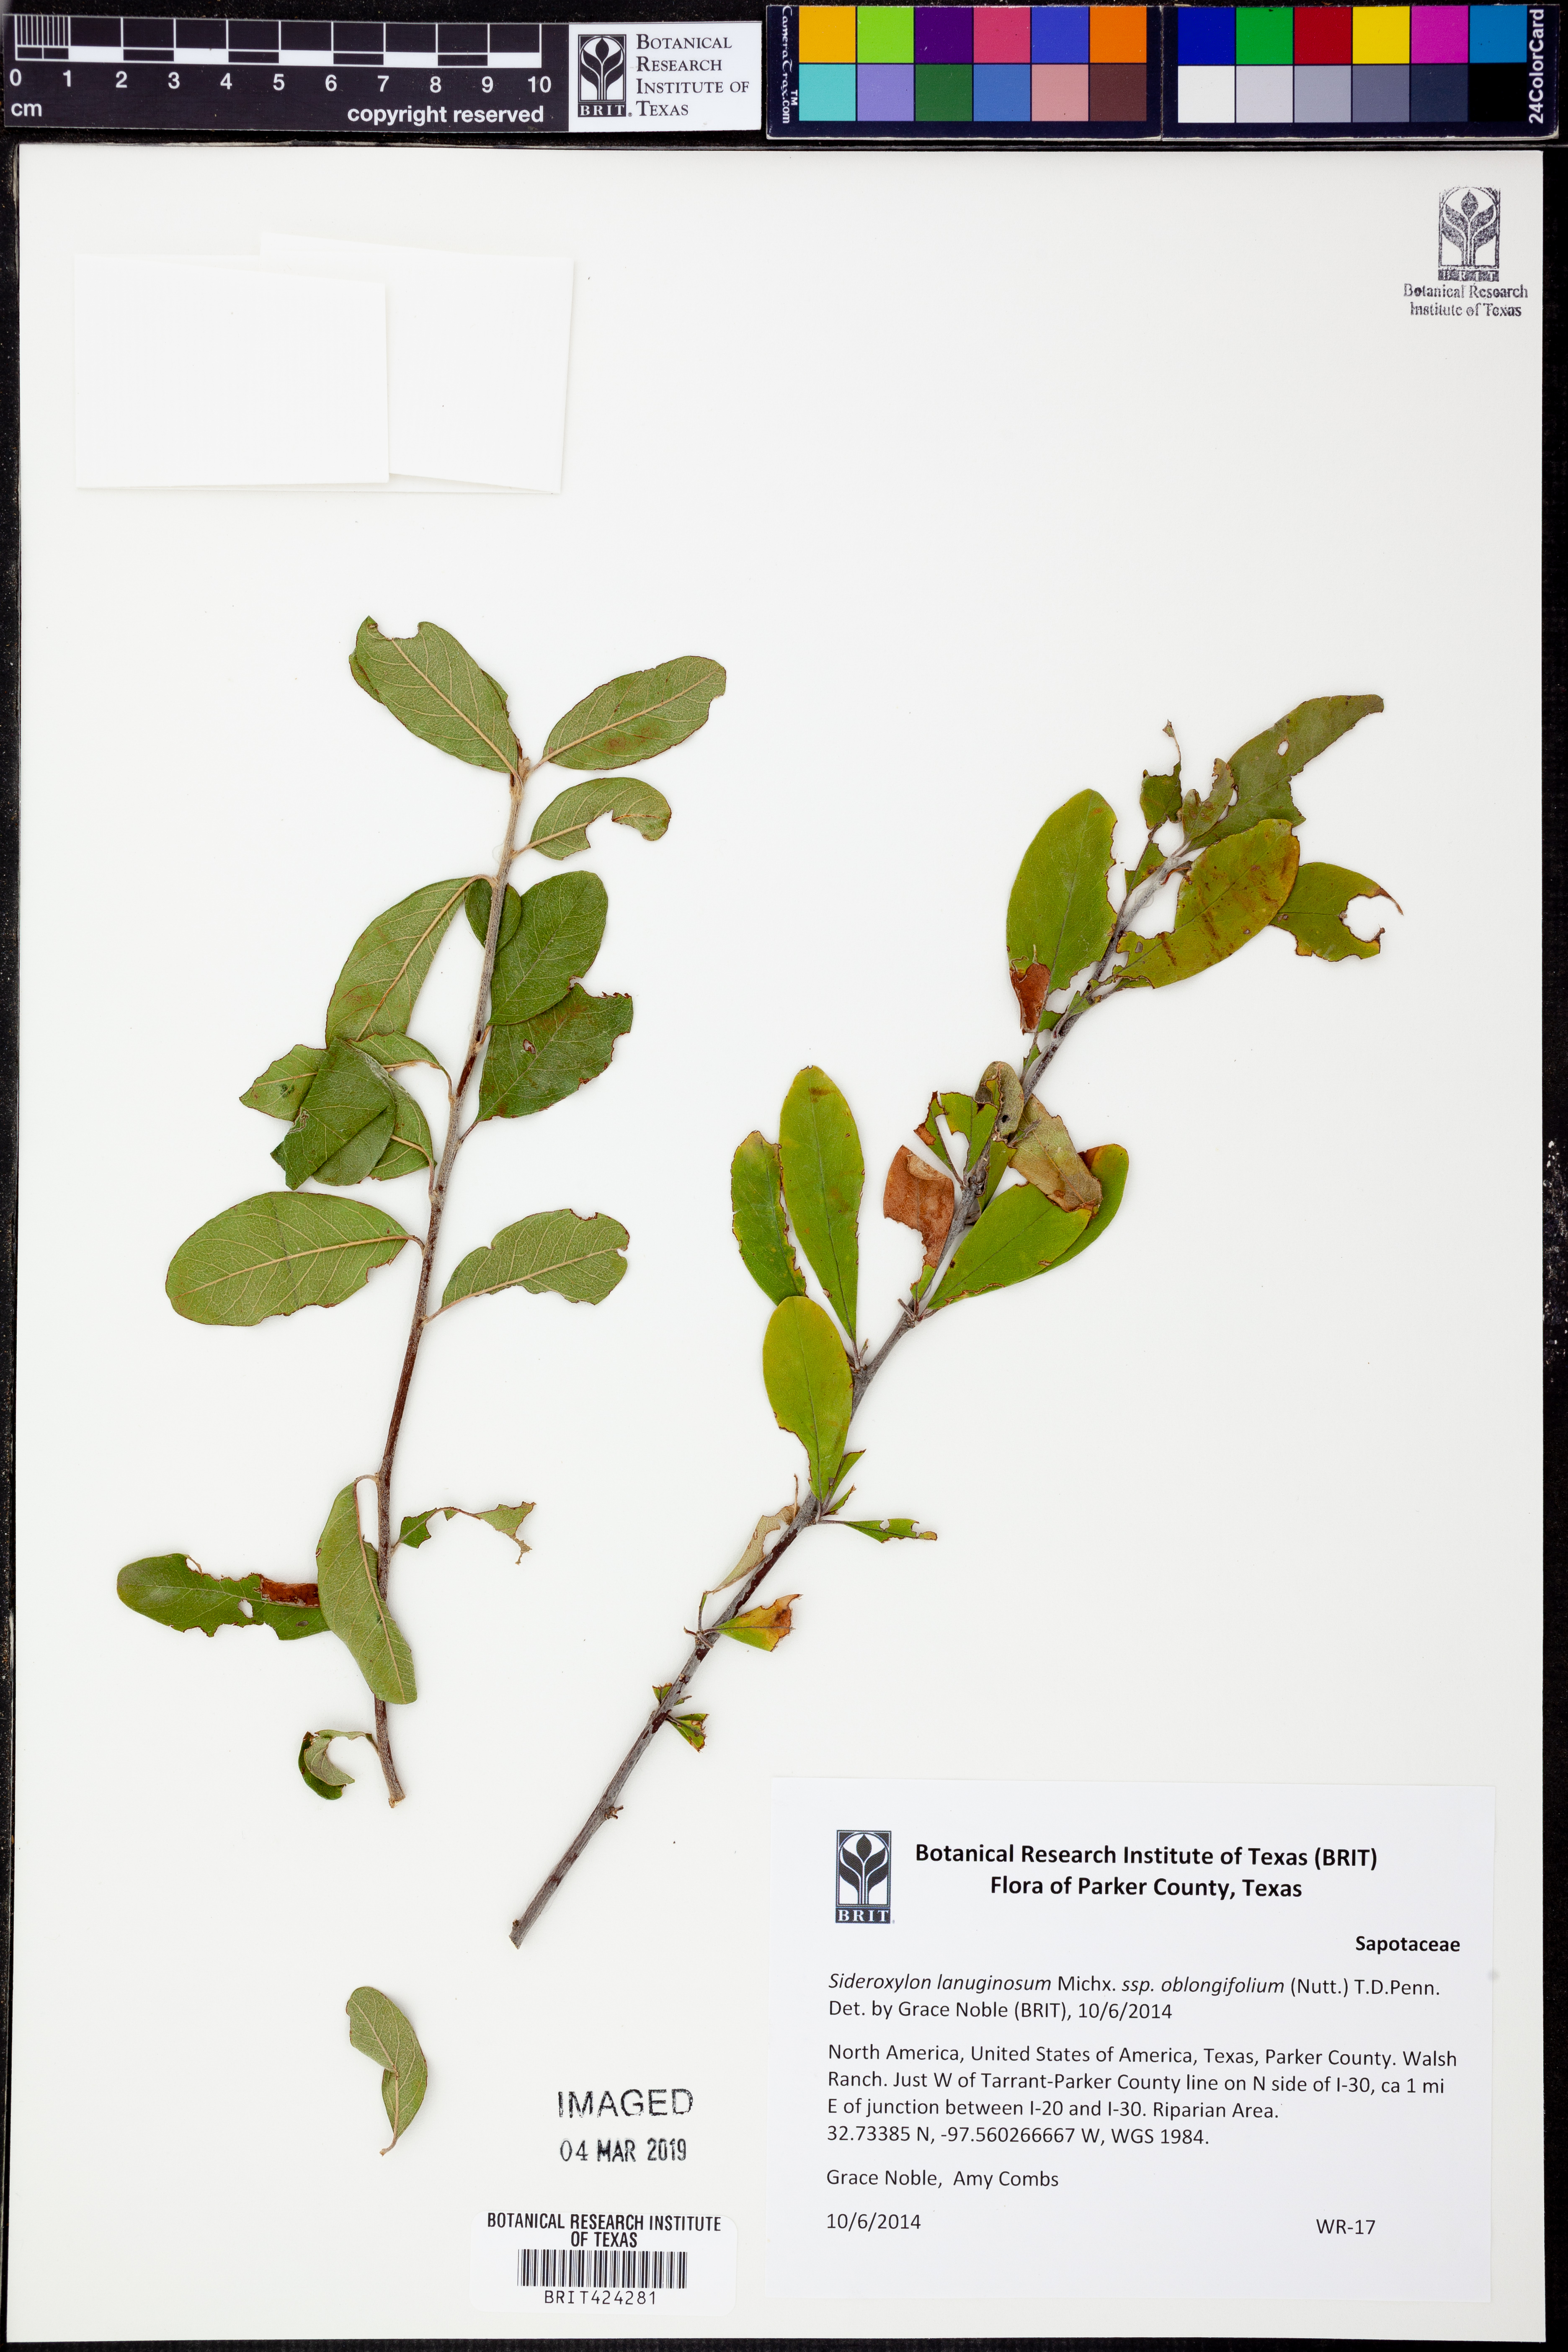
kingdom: Plantae
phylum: Tracheophyta
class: Magnoliopsida
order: Ericales
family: Sapotaceae
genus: Sideroxylon
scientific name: Sideroxylon lanuginosum
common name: Chittamwood
